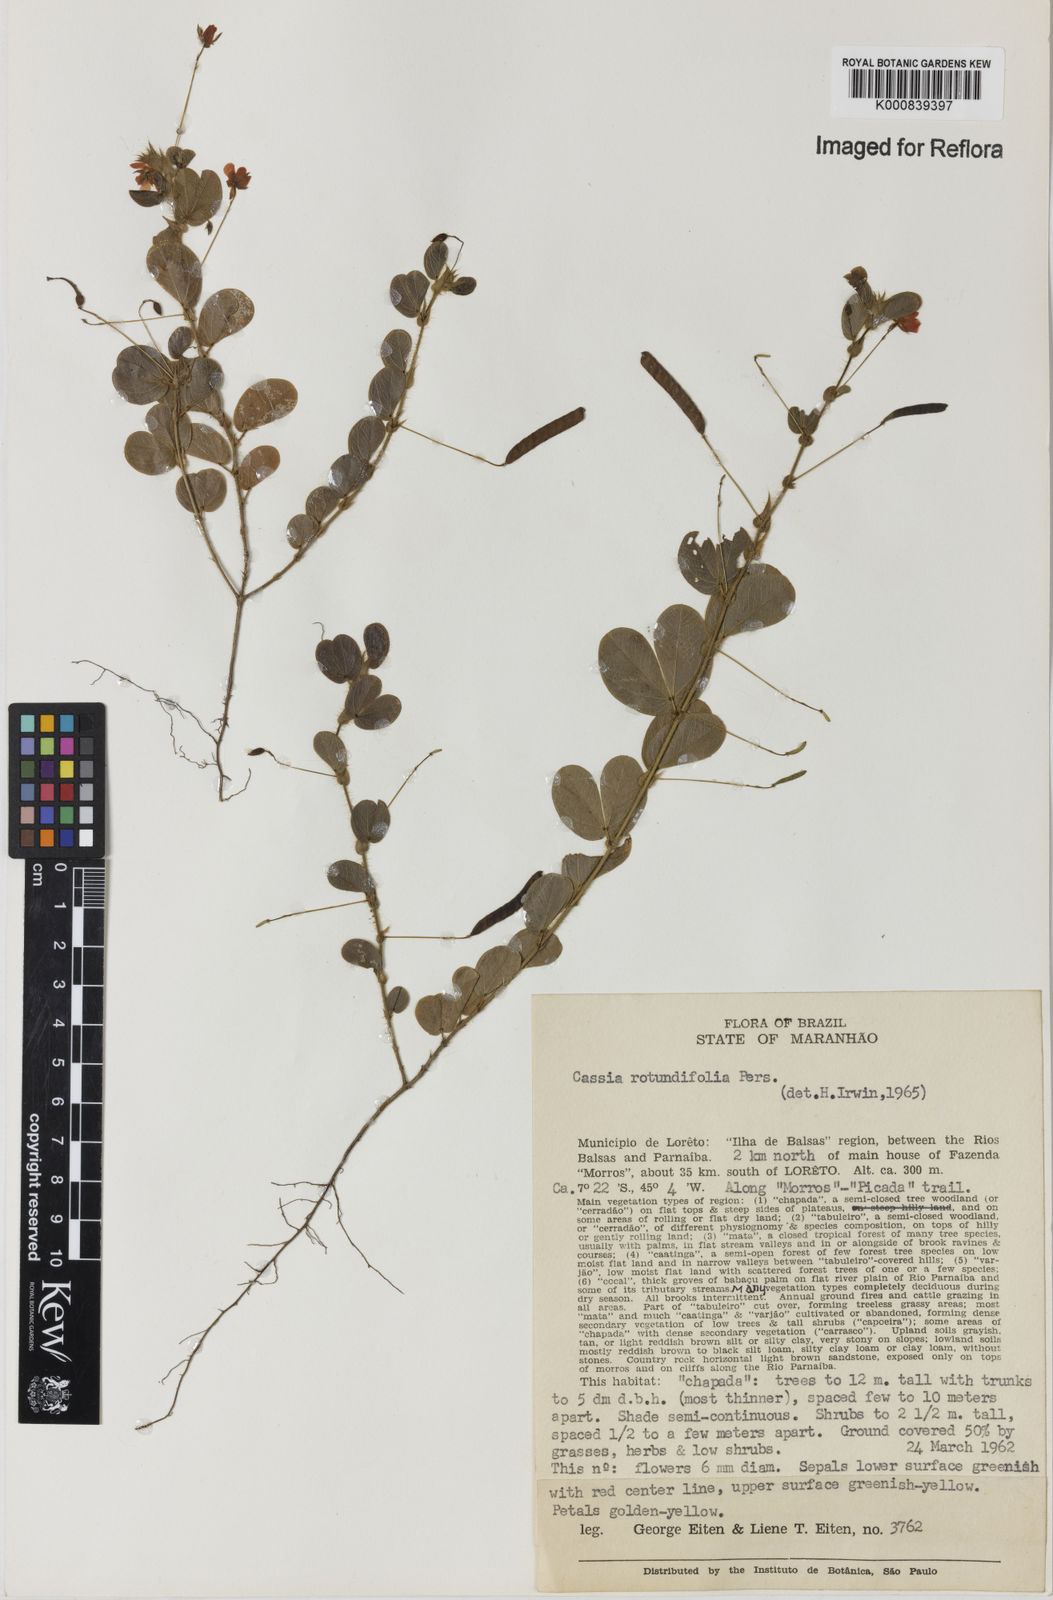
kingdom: Plantae
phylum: Tracheophyta
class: Magnoliopsida
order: Fabales
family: Fabaceae
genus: Chamaecrista
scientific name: Chamaecrista rotundifolia
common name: Round-leaf cassia
